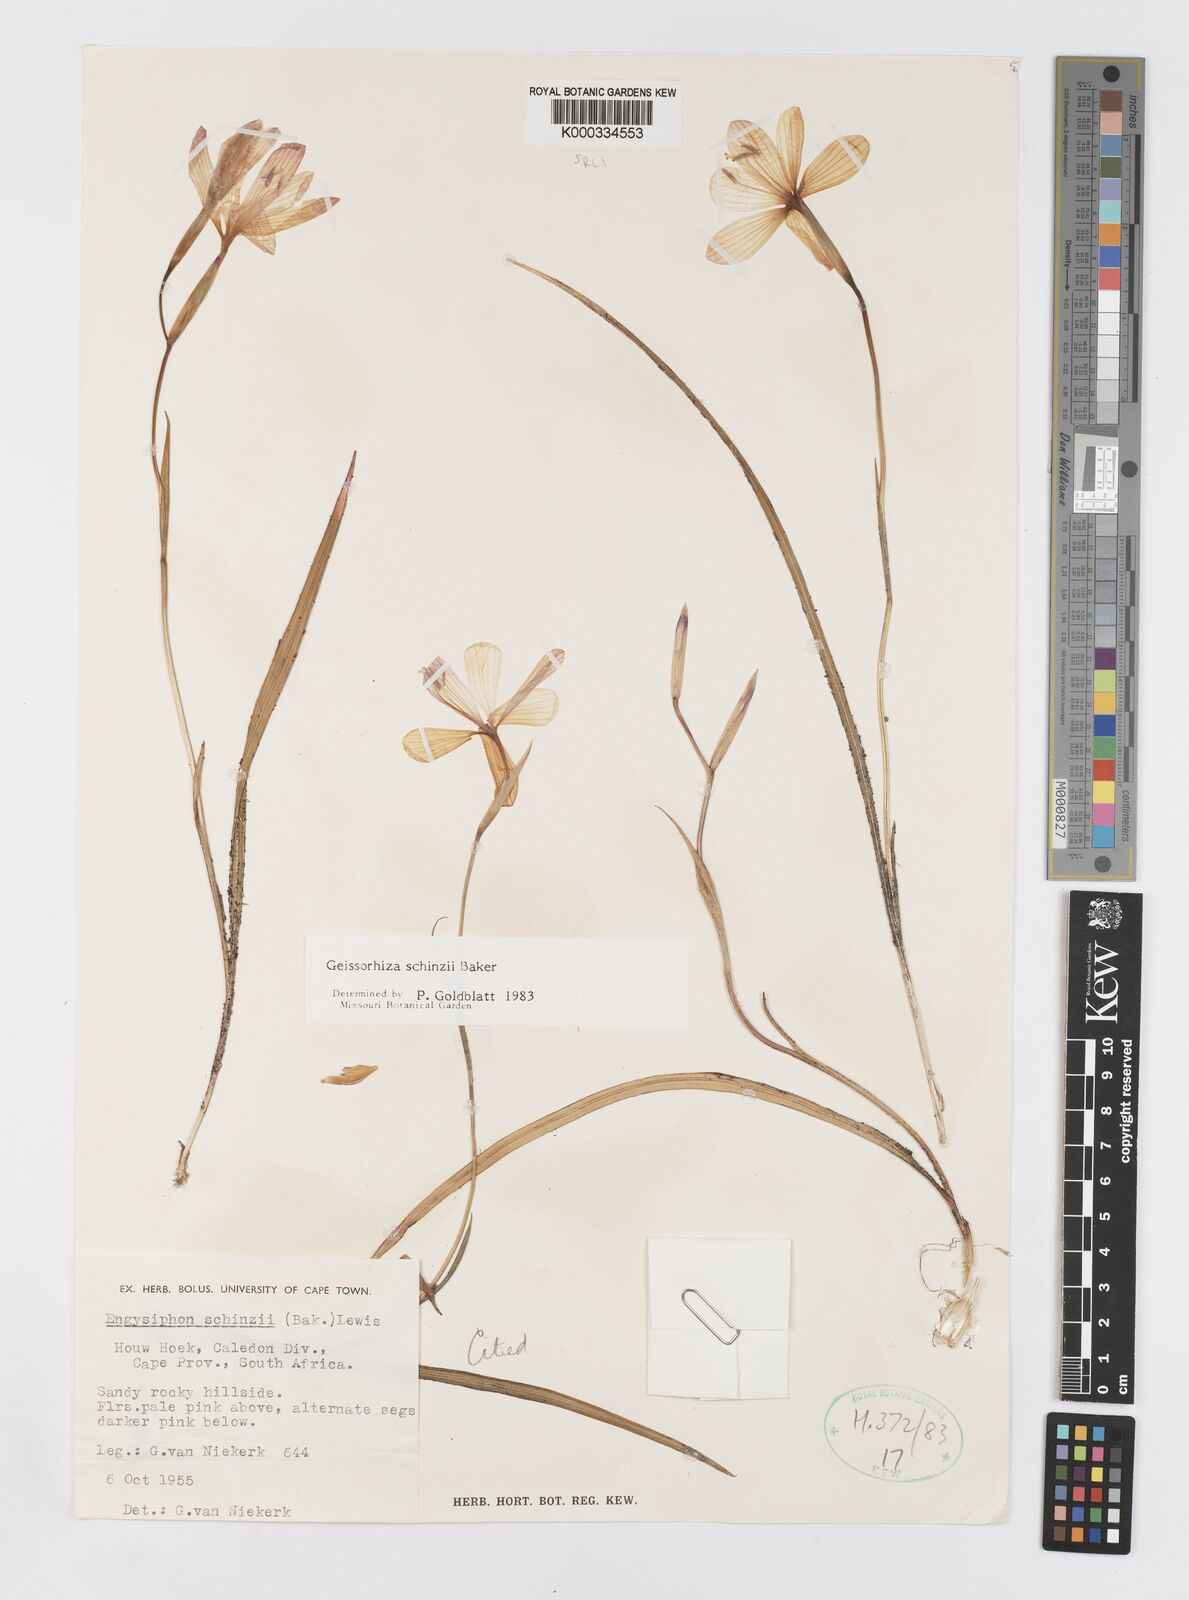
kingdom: Plantae
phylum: Tracheophyta
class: Liliopsida
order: Asparagales
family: Iridaceae
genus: Geissorhiza
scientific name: Geissorhiza schinzii
